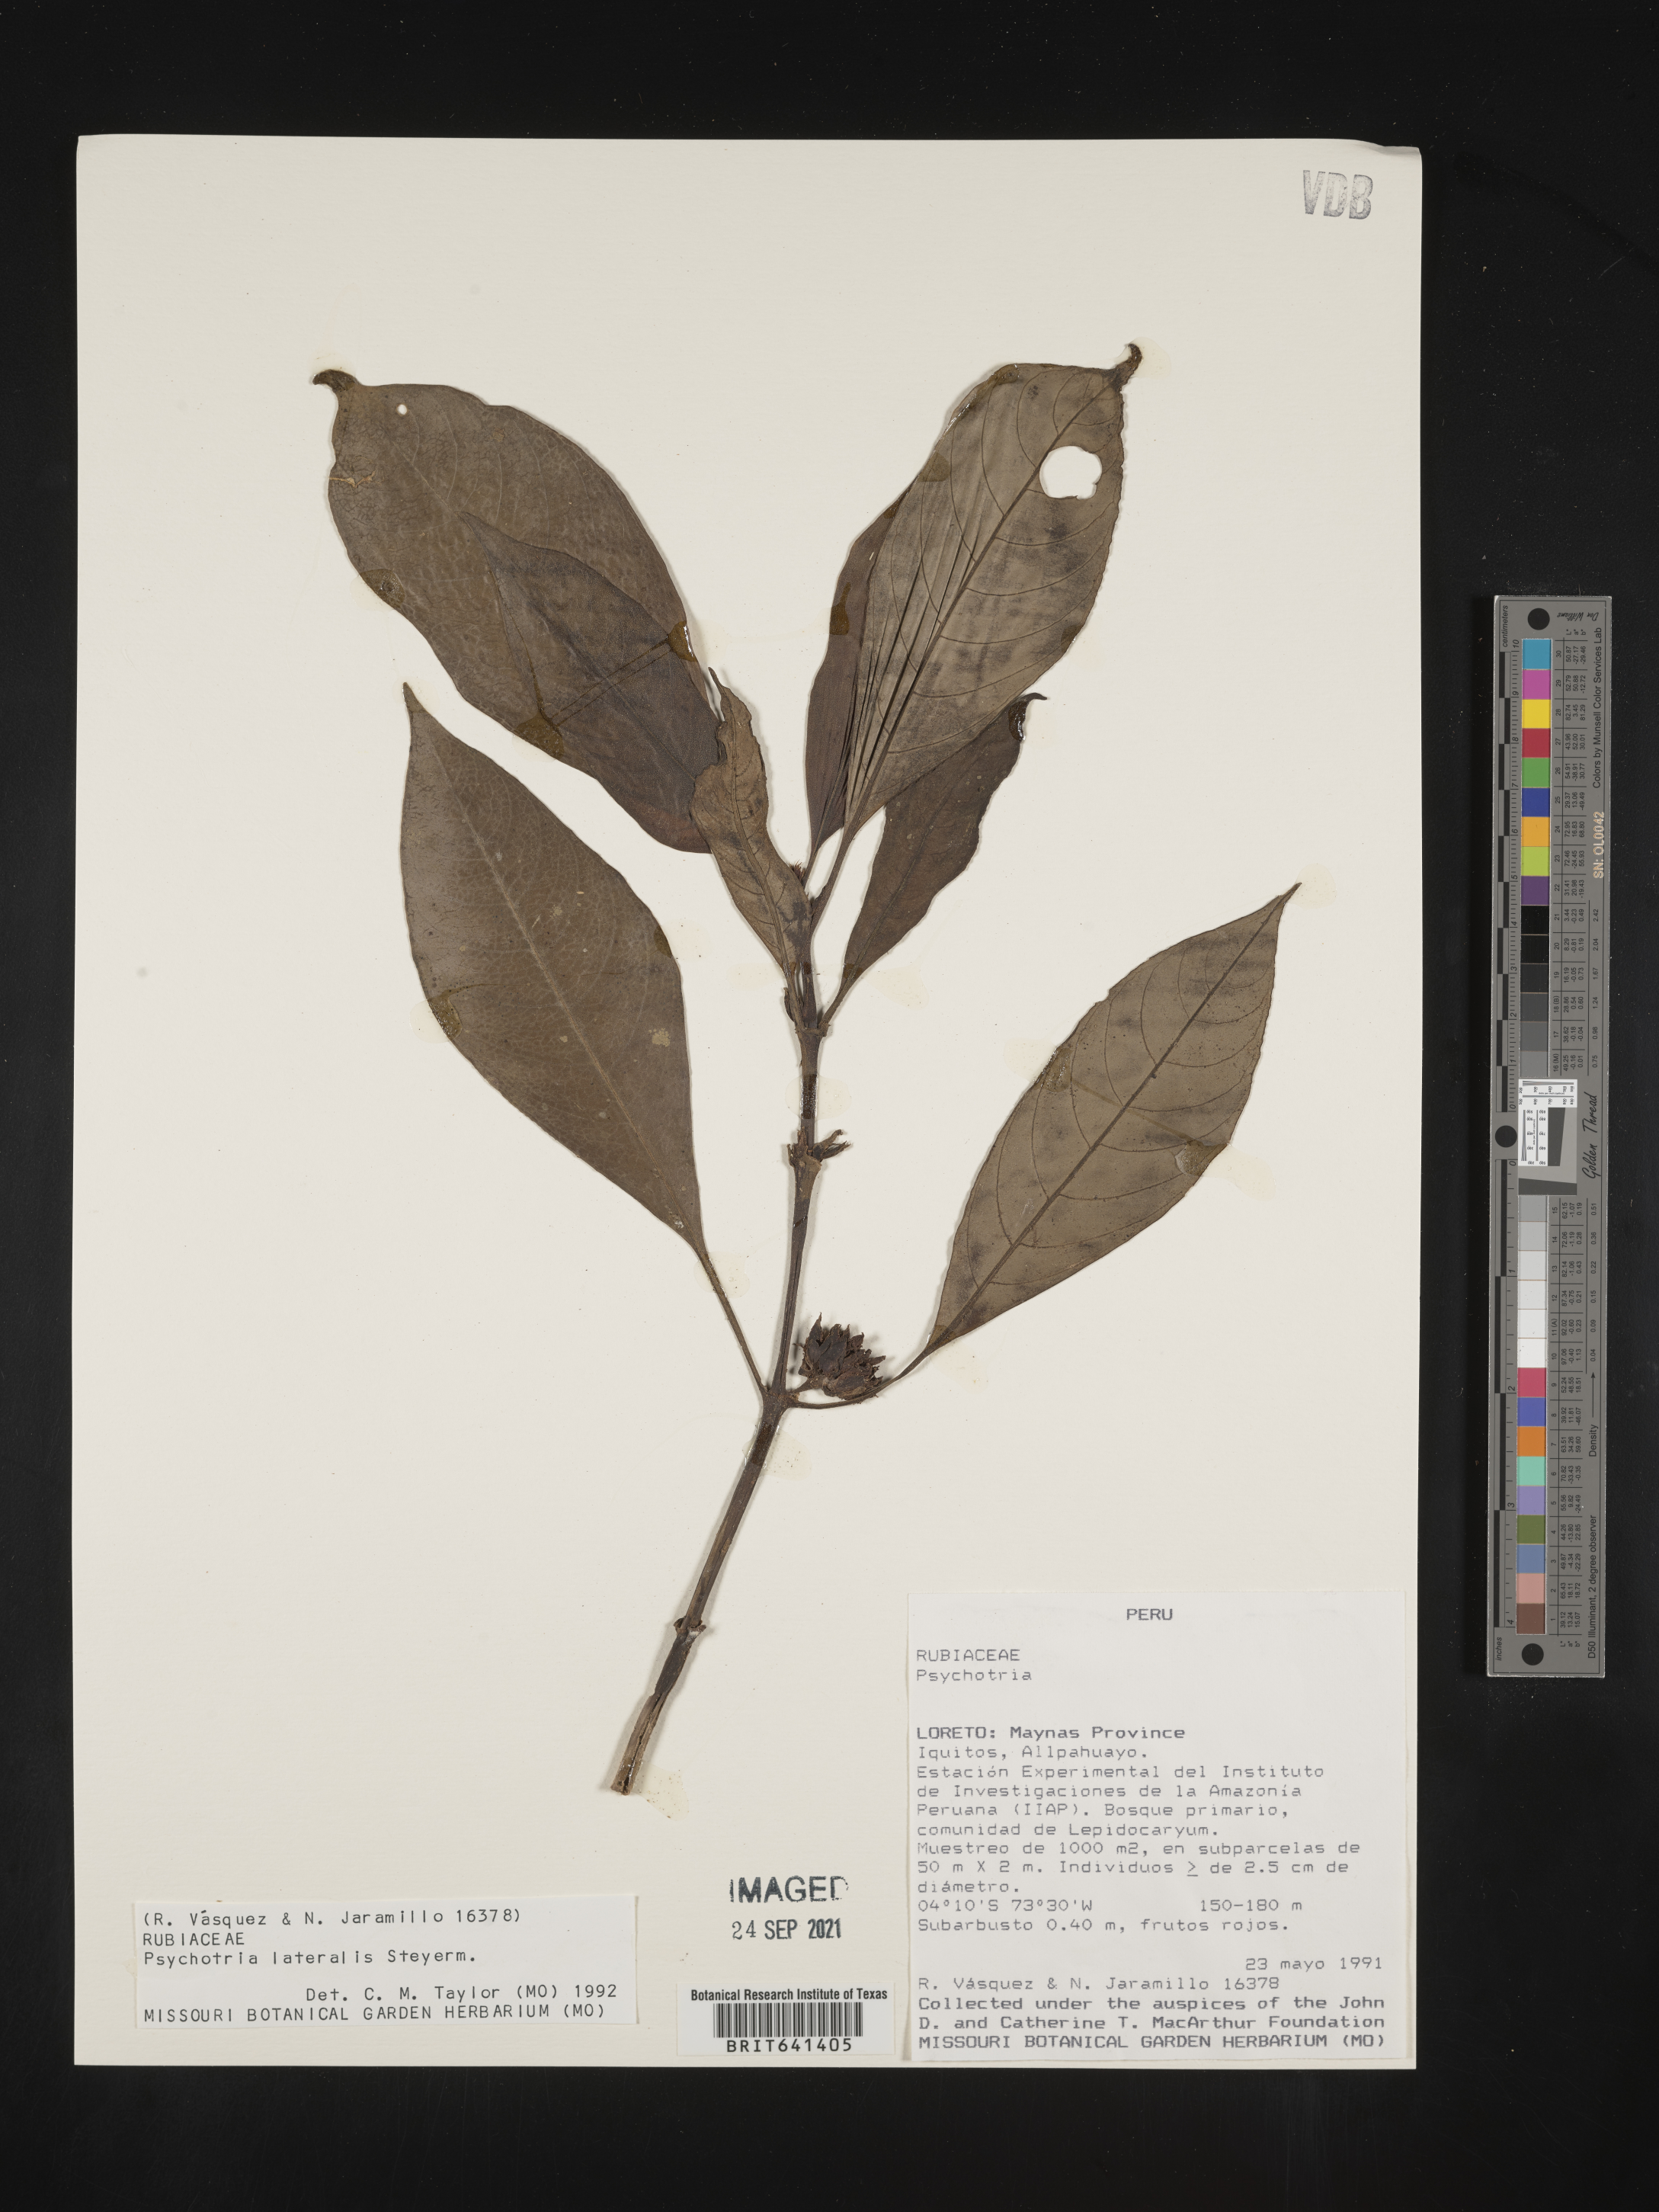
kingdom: Plantae
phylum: Tracheophyta
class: Magnoliopsida
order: Gentianales
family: Rubiaceae
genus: Psychotria
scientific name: Psychotria
